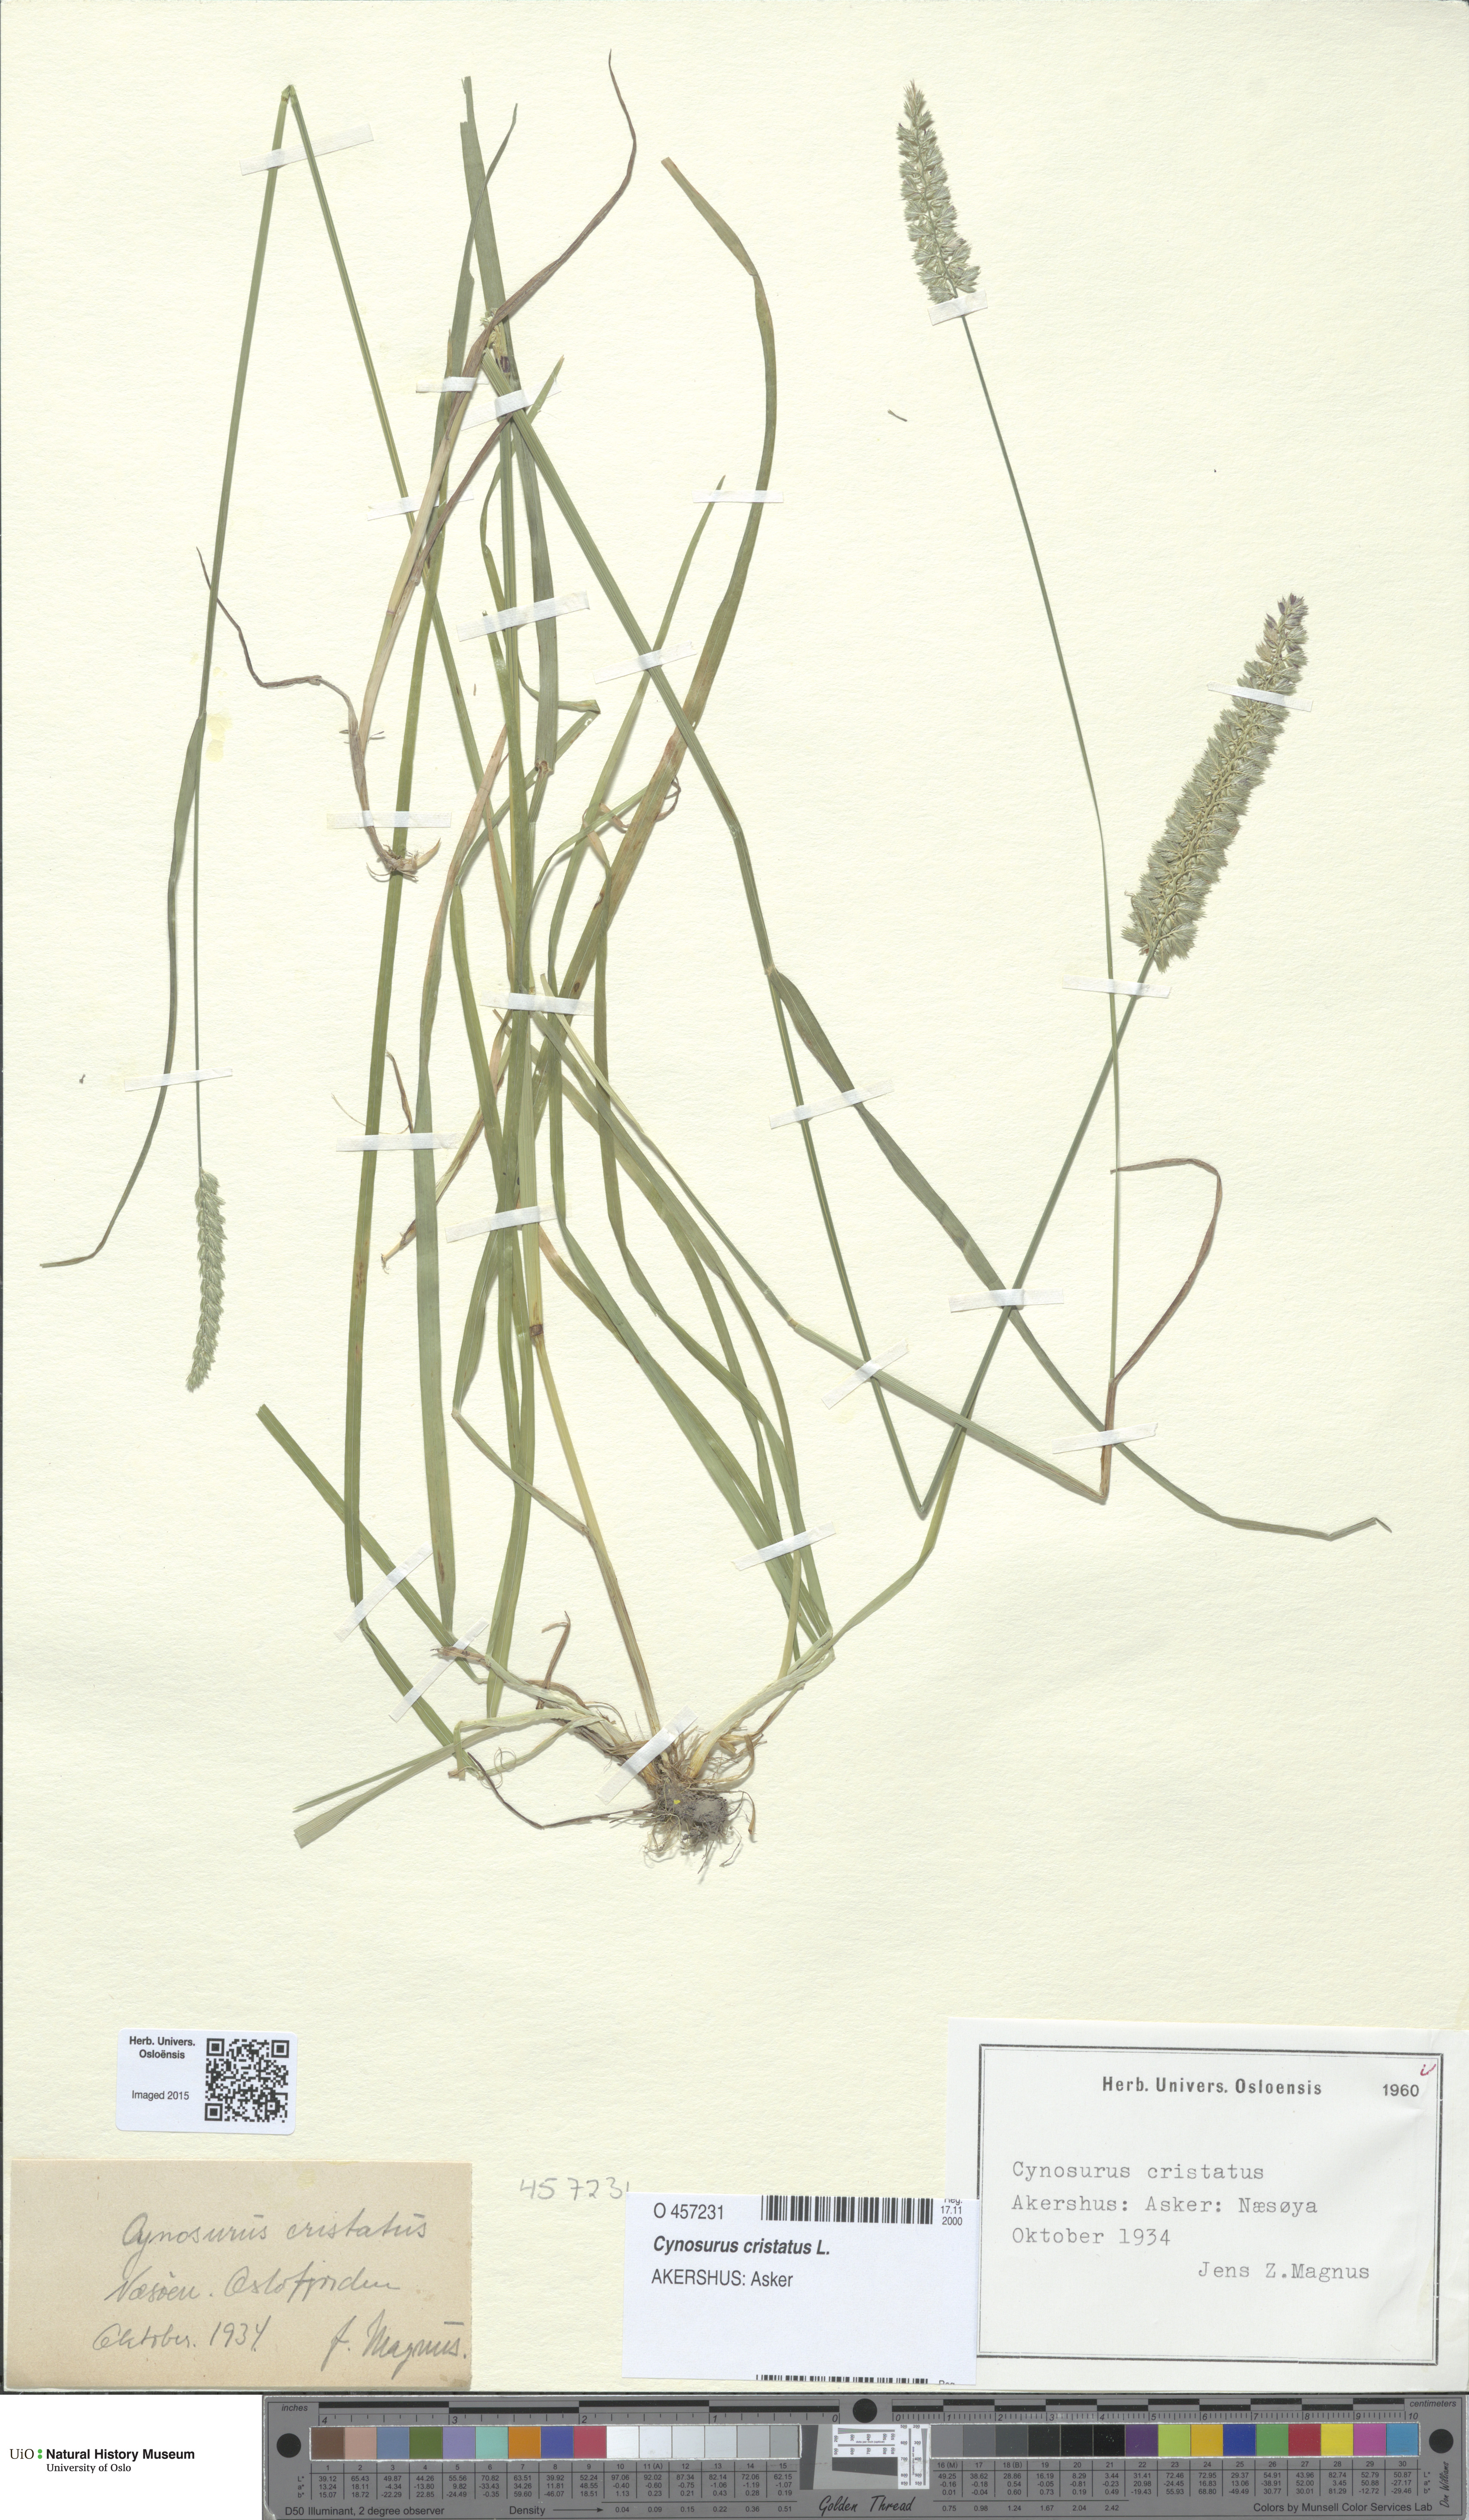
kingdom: Plantae
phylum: Tracheophyta
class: Liliopsida
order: Poales
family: Poaceae
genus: Cynosurus
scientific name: Cynosurus cristatus
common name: Crested dog's-tail
